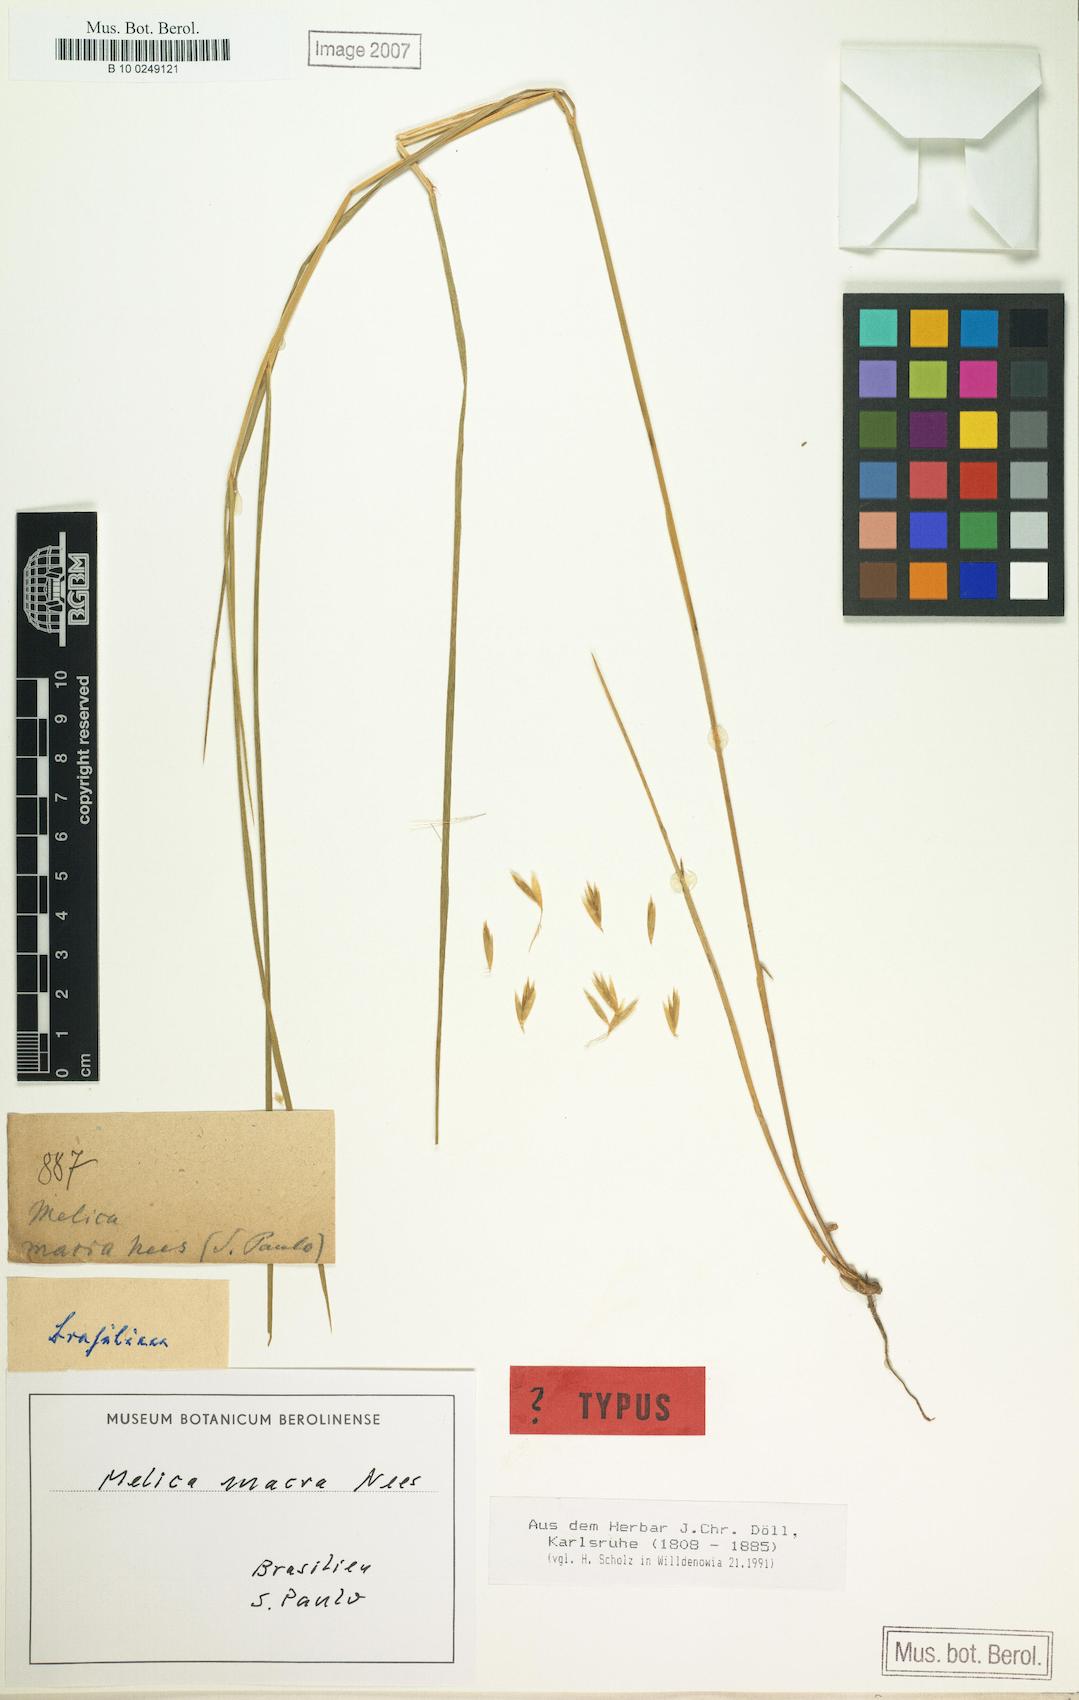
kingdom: Plantae
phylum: Tracheophyta
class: Liliopsida
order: Poales
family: Poaceae
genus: Melica
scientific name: Melica macra
